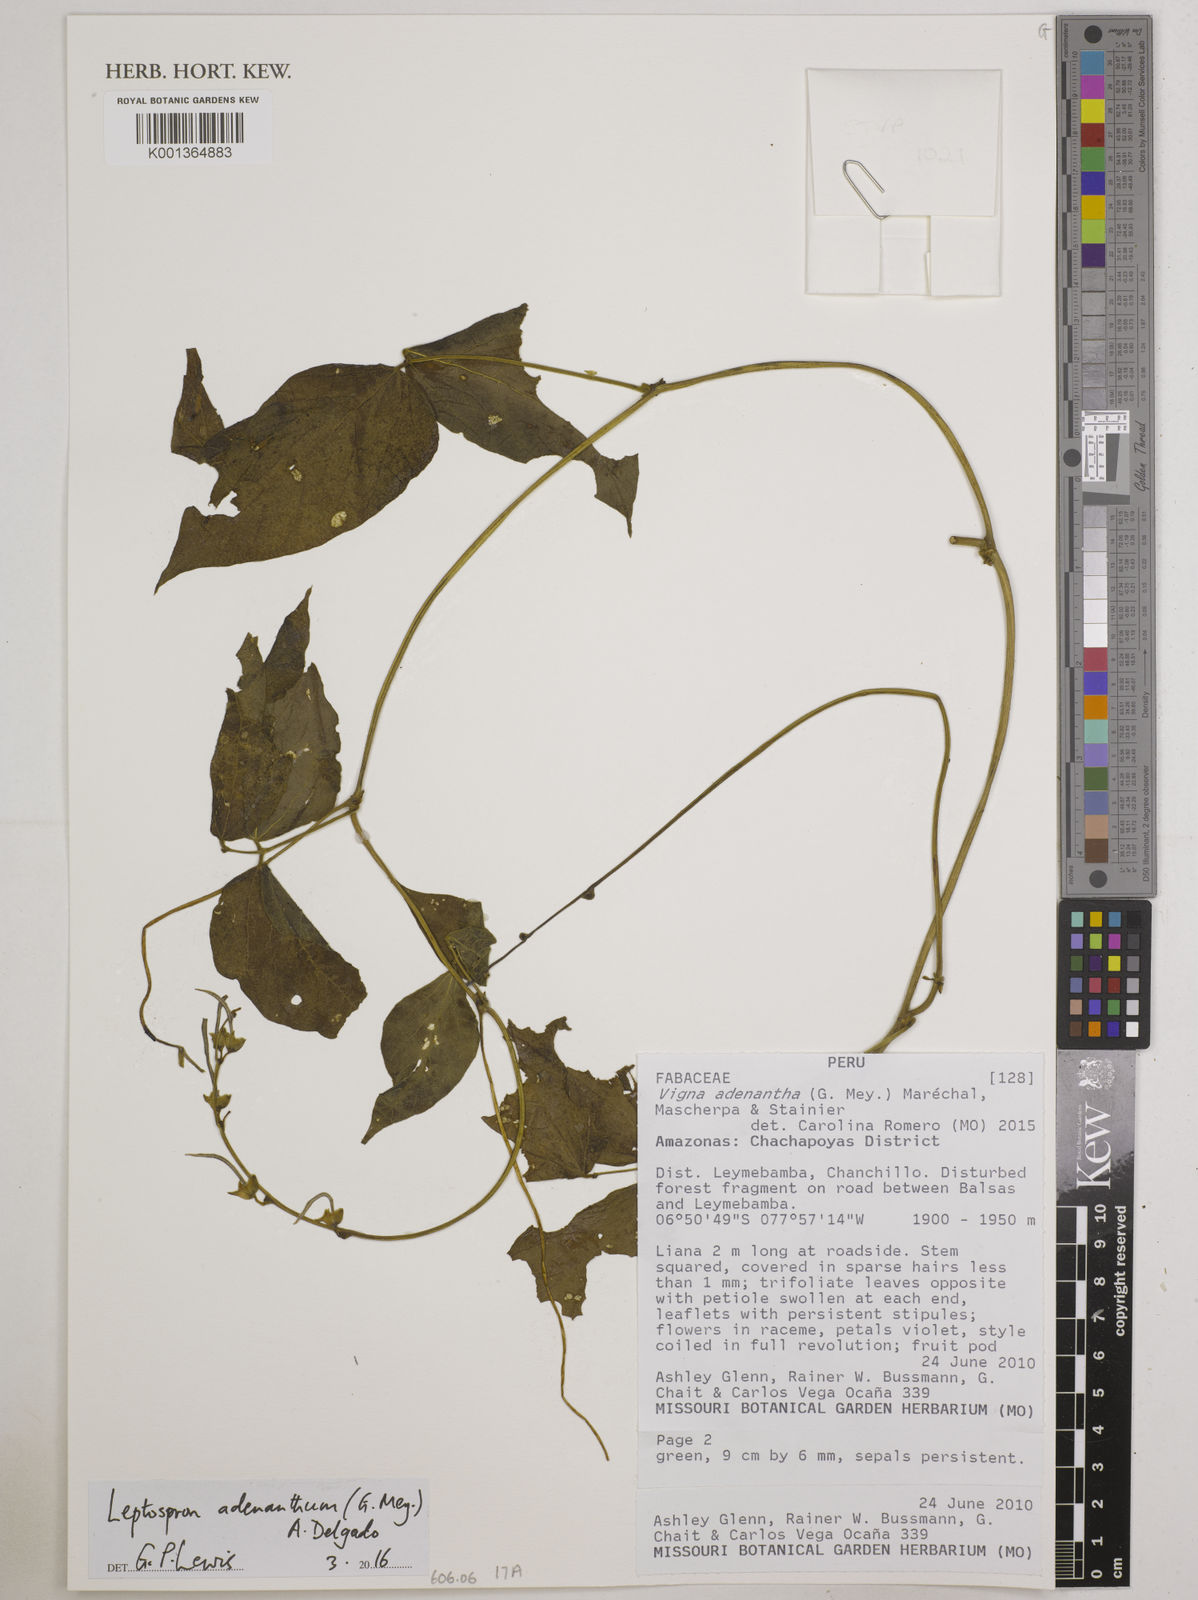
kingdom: Plantae
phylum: Tracheophyta
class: Magnoliopsida
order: Fabales
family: Fabaceae
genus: Leptospron
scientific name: Leptospron adenanthum
